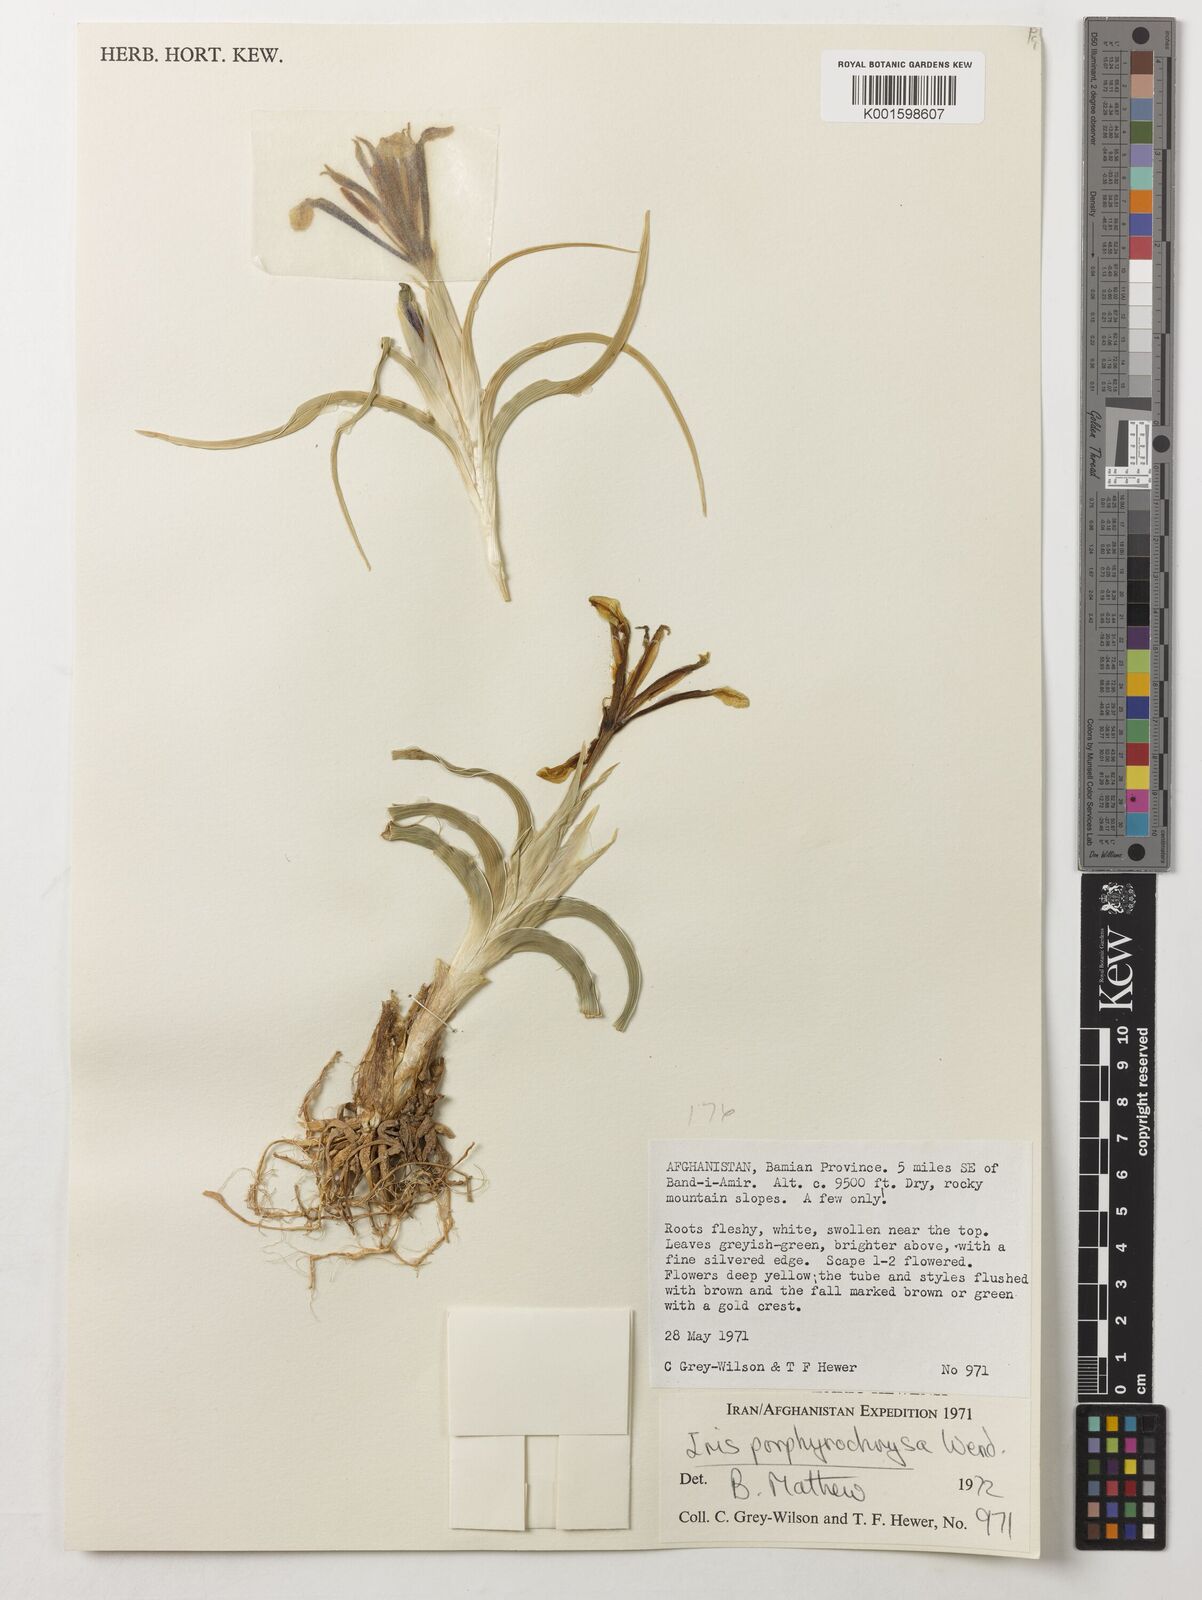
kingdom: Plantae
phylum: Tracheophyta
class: Liliopsida
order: Asparagales
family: Iridaceae
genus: Iris
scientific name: Iris porphyrochrysa
